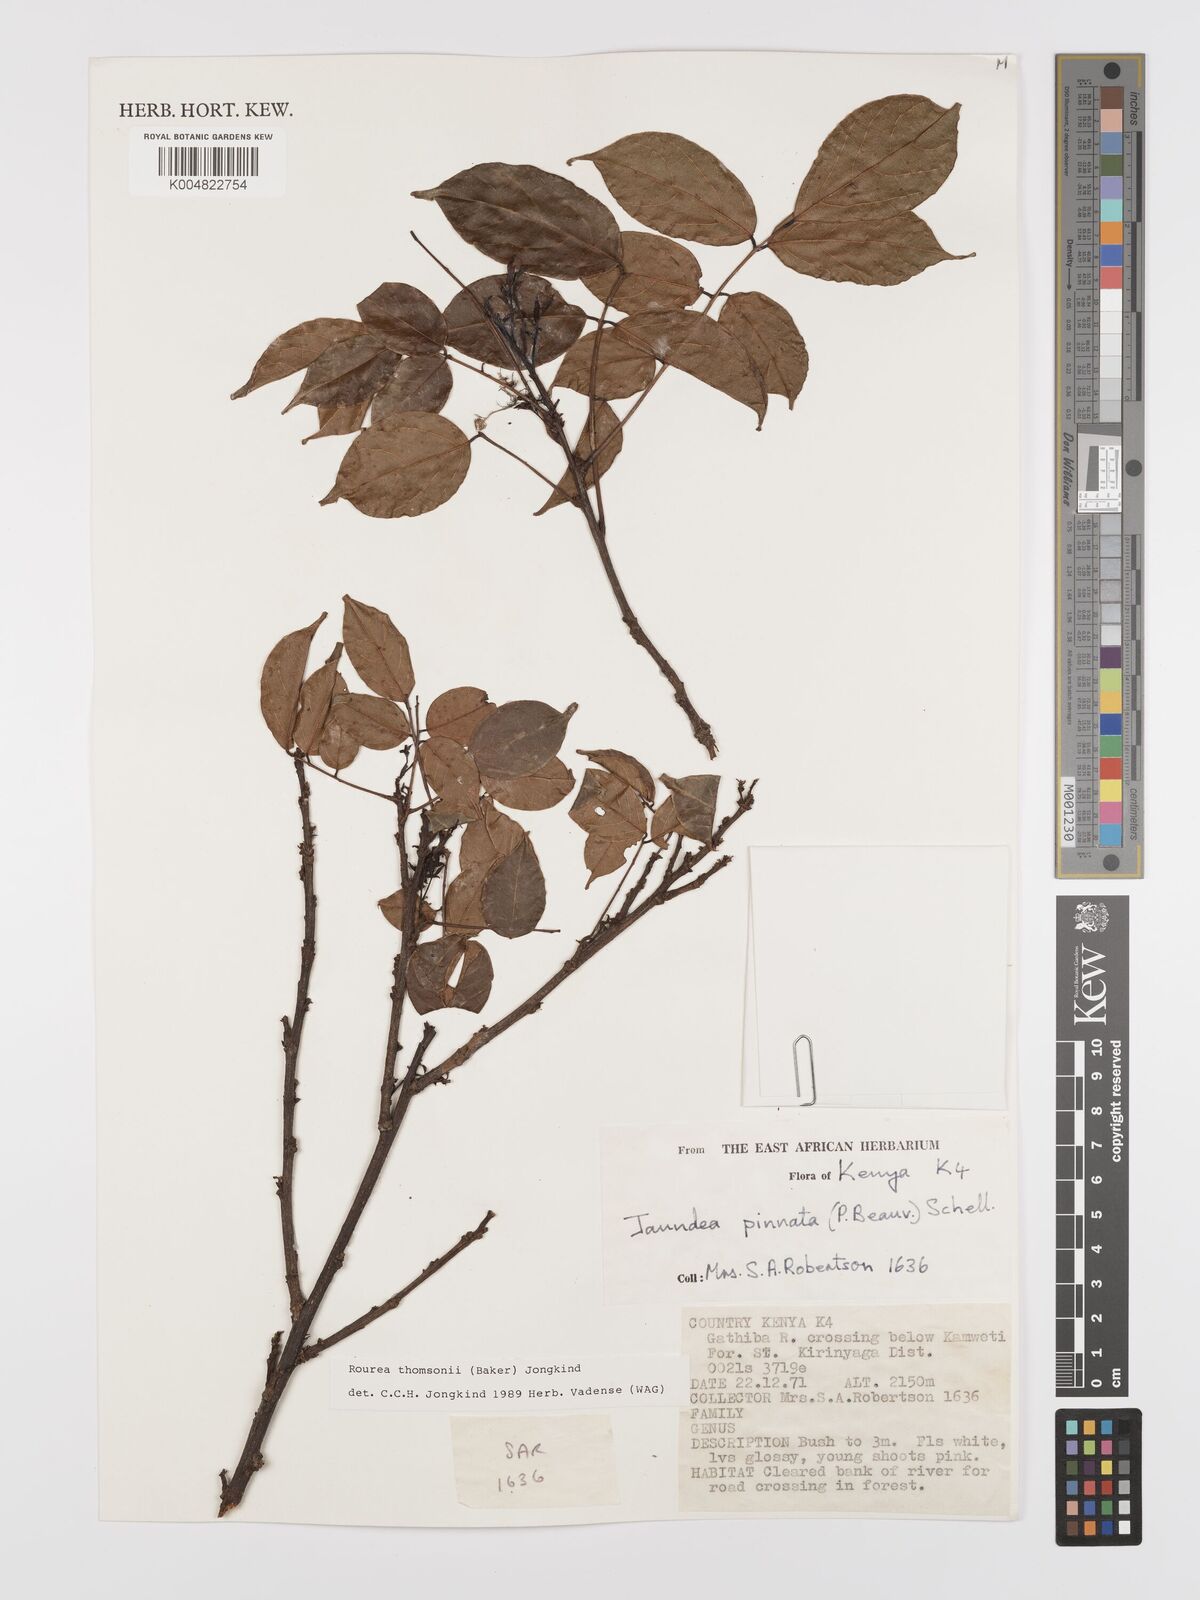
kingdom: Plantae
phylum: Tracheophyta
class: Magnoliopsida
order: Oxalidales
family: Connaraceae
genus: Rourea
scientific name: Rourea thomsonii
